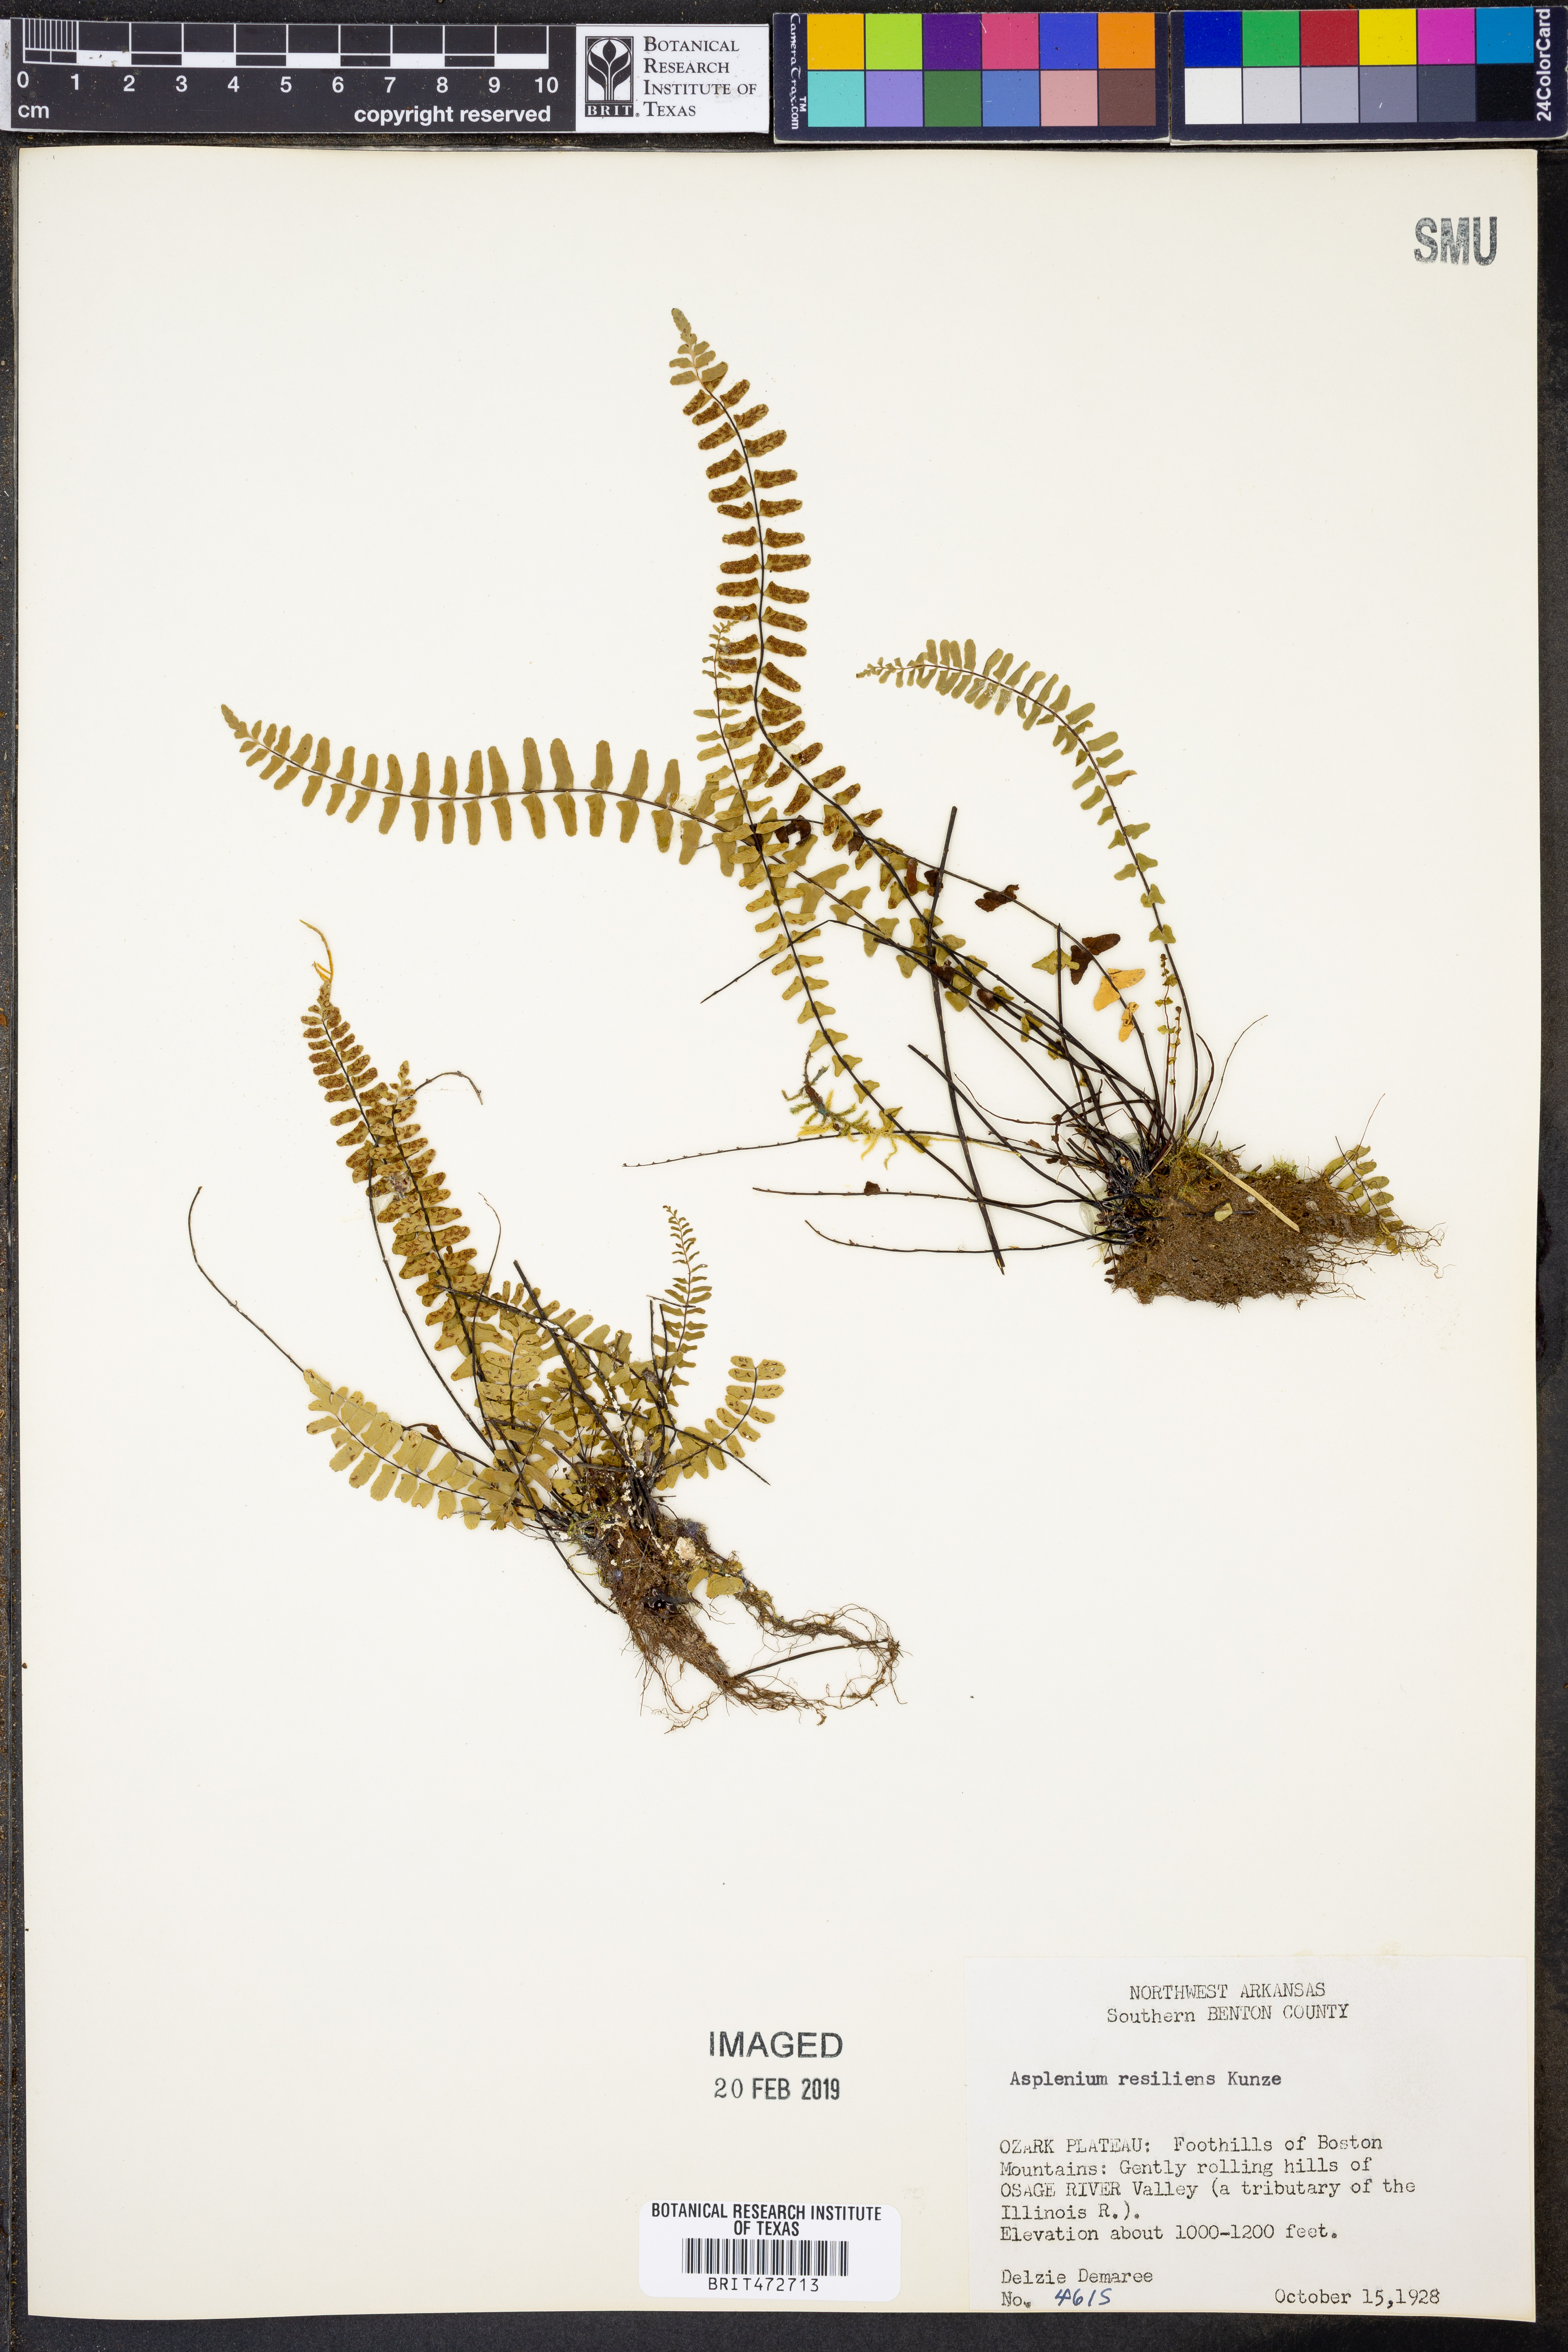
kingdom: Plantae
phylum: Tracheophyta
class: Polypodiopsida
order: Polypodiales
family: Aspleniaceae
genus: Asplenium
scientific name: Asplenium resiliens
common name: Blackstem spleenwort
